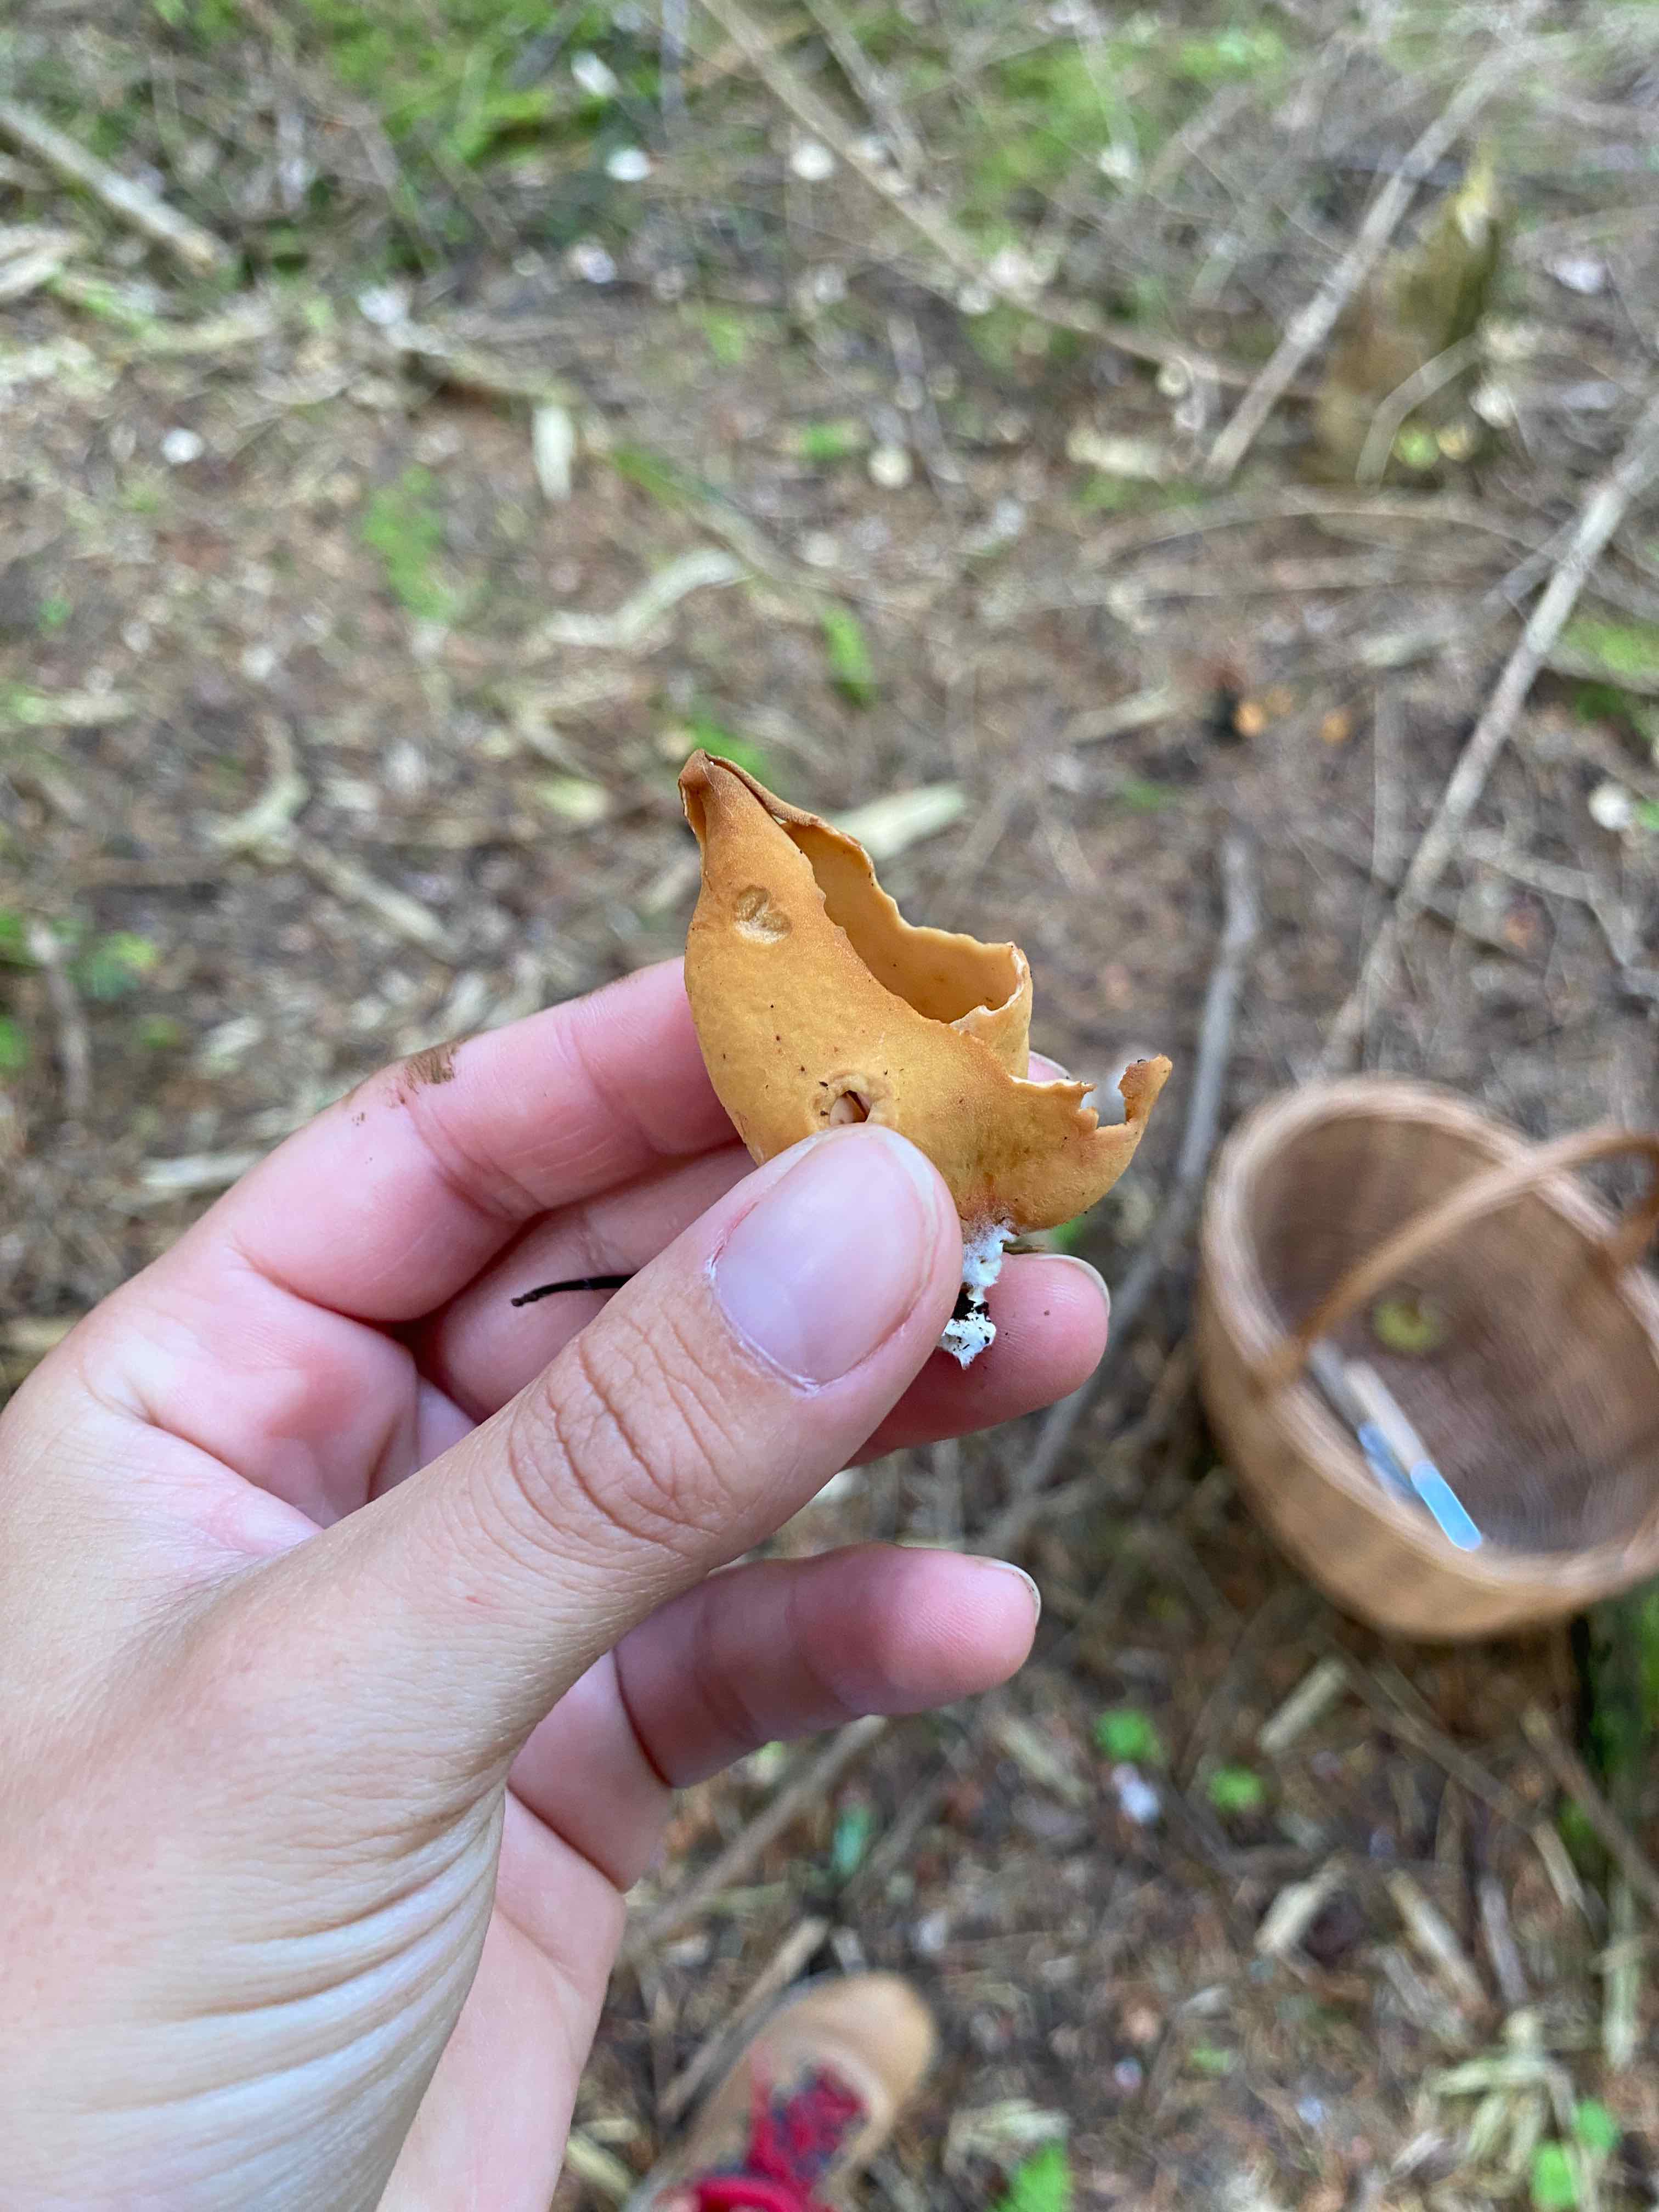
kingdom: Fungi
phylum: Ascomycota
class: Pezizomycetes
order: Pezizales
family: Otideaceae
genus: Otidea
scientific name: Otidea onotica
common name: æsel-ørebæger
